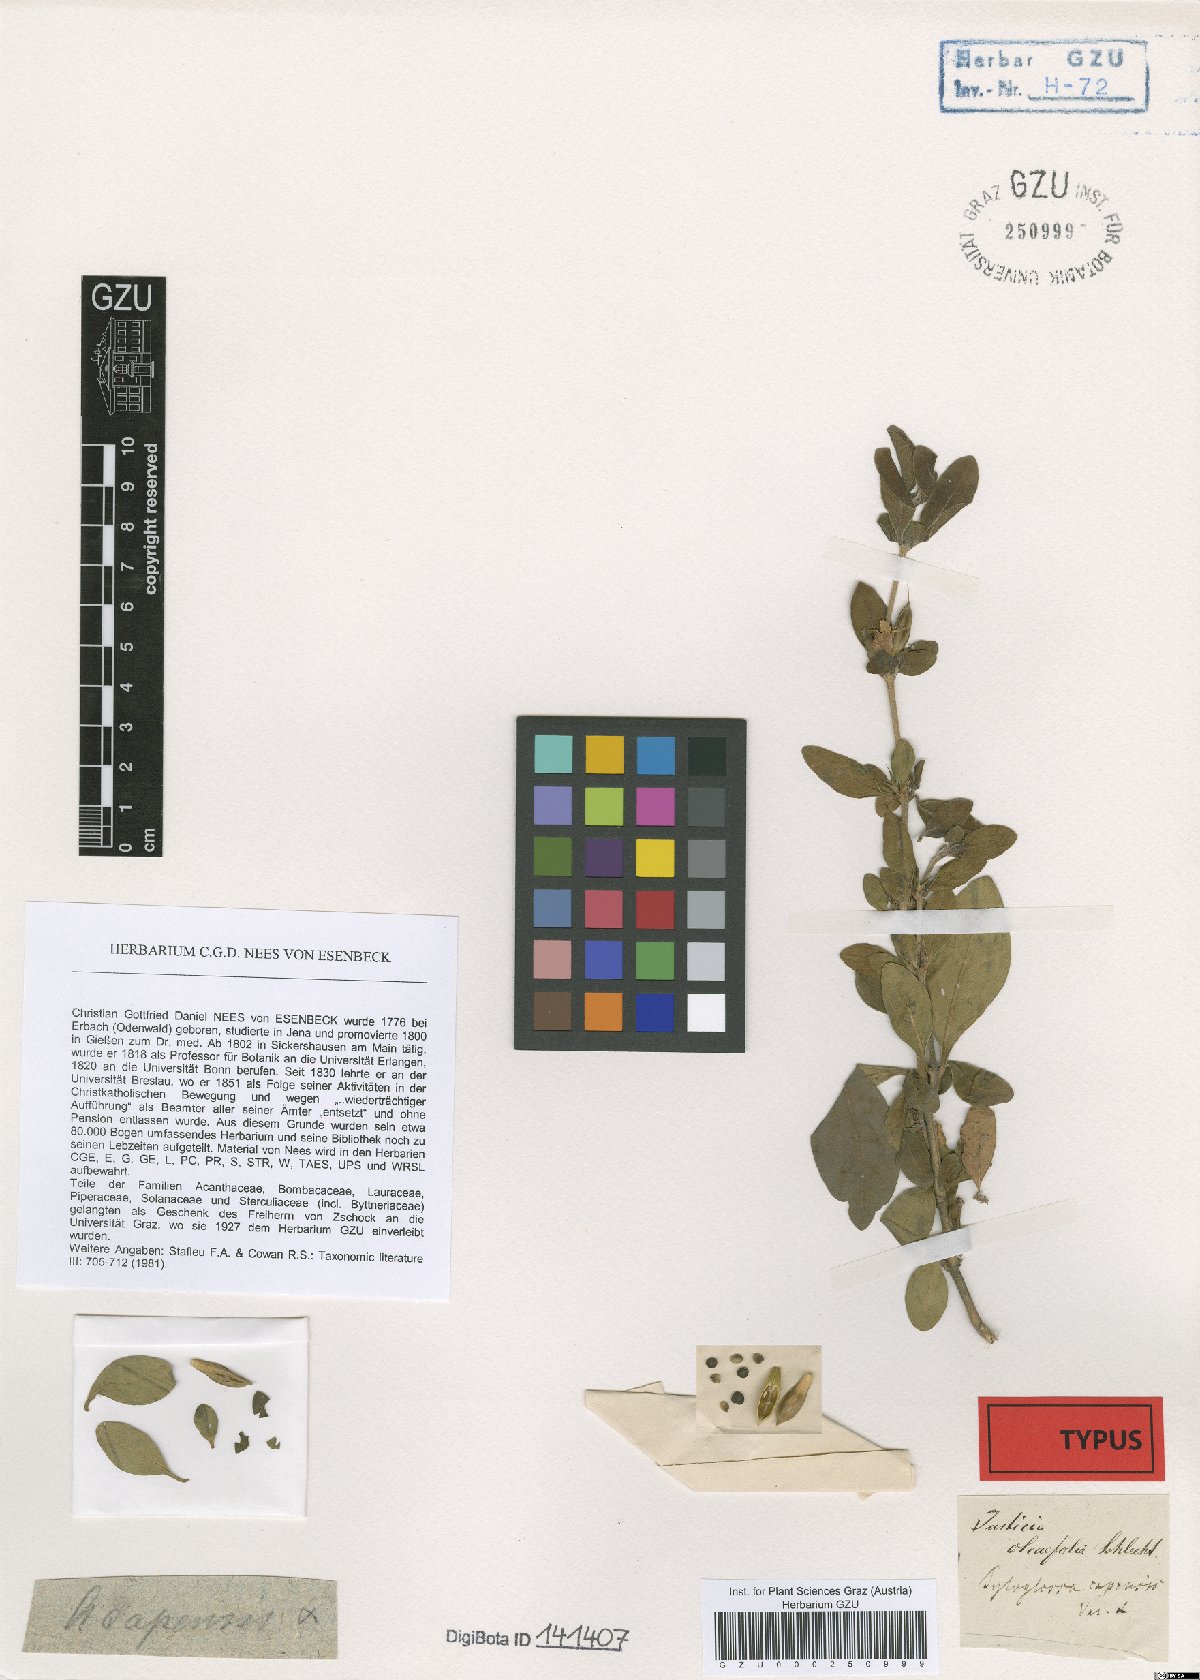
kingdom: Plantae
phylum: Tracheophyta
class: Magnoliopsida
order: Lamiales
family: Acanthaceae
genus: Justicia
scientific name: Justicia capensis
